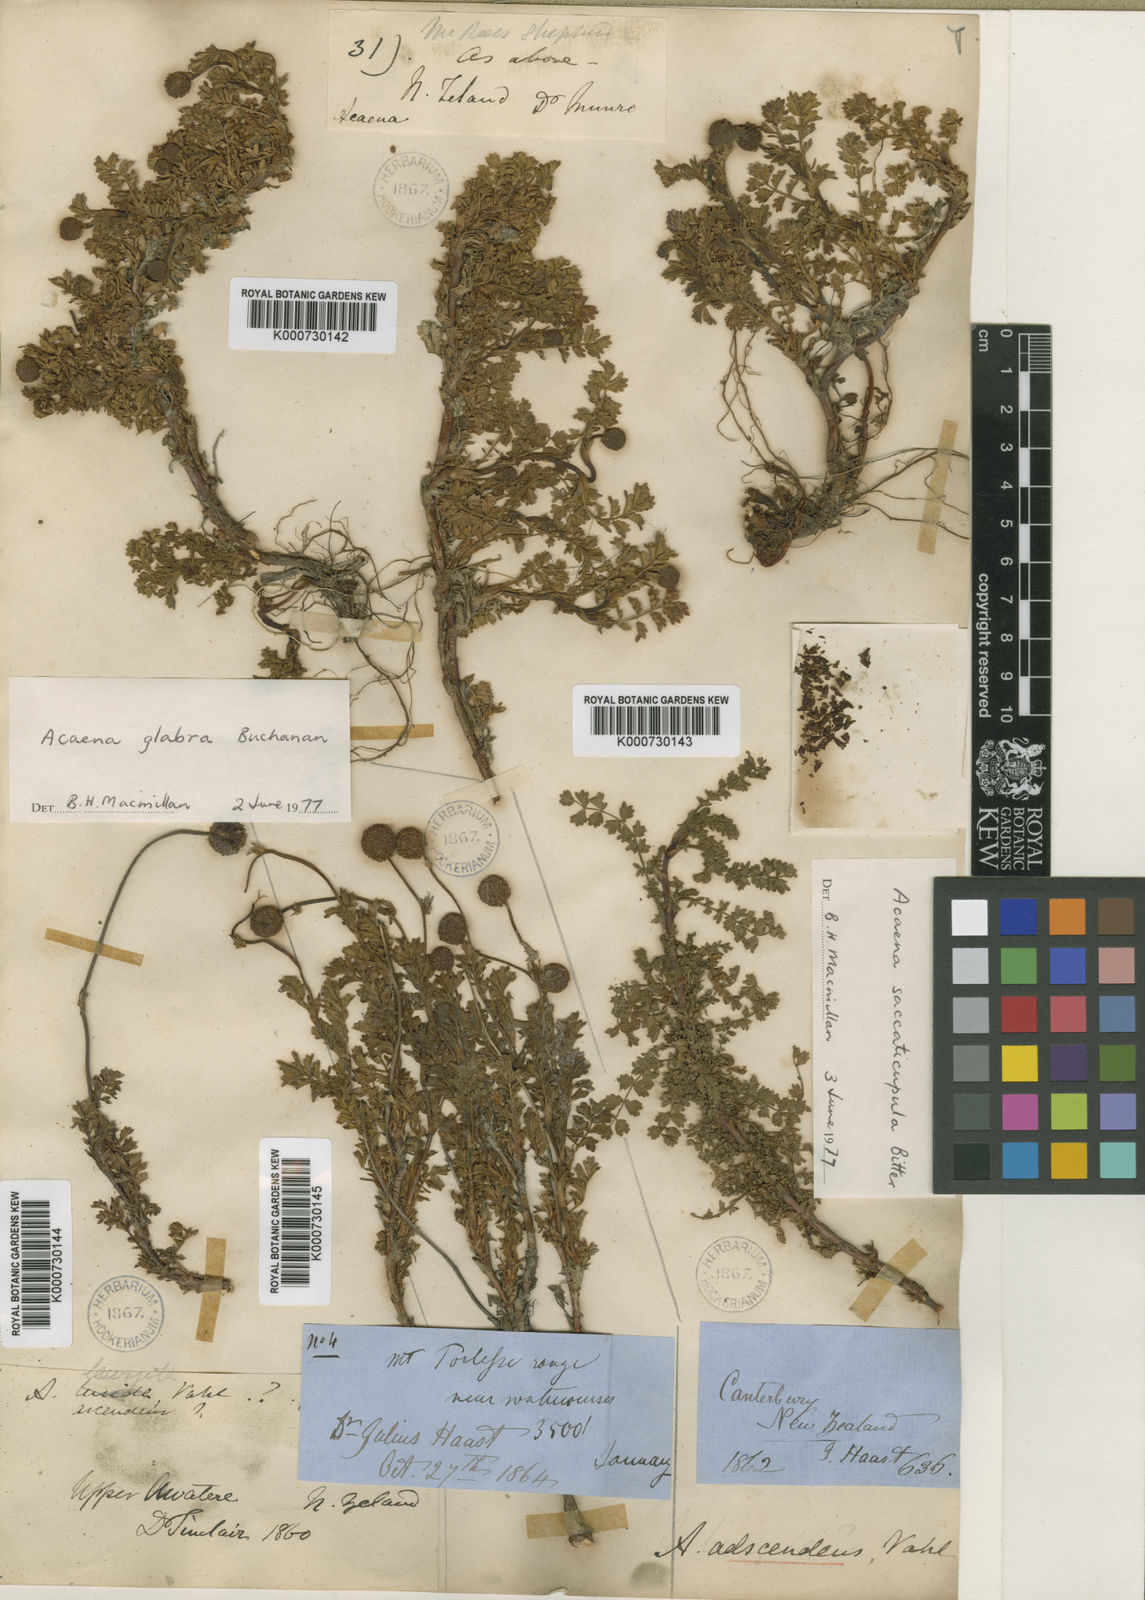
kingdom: Plantae
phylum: Tracheophyta
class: Magnoliopsida
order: Rosales
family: Rosaceae
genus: Acaena
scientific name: Acaena magellanica
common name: New zealand burr
